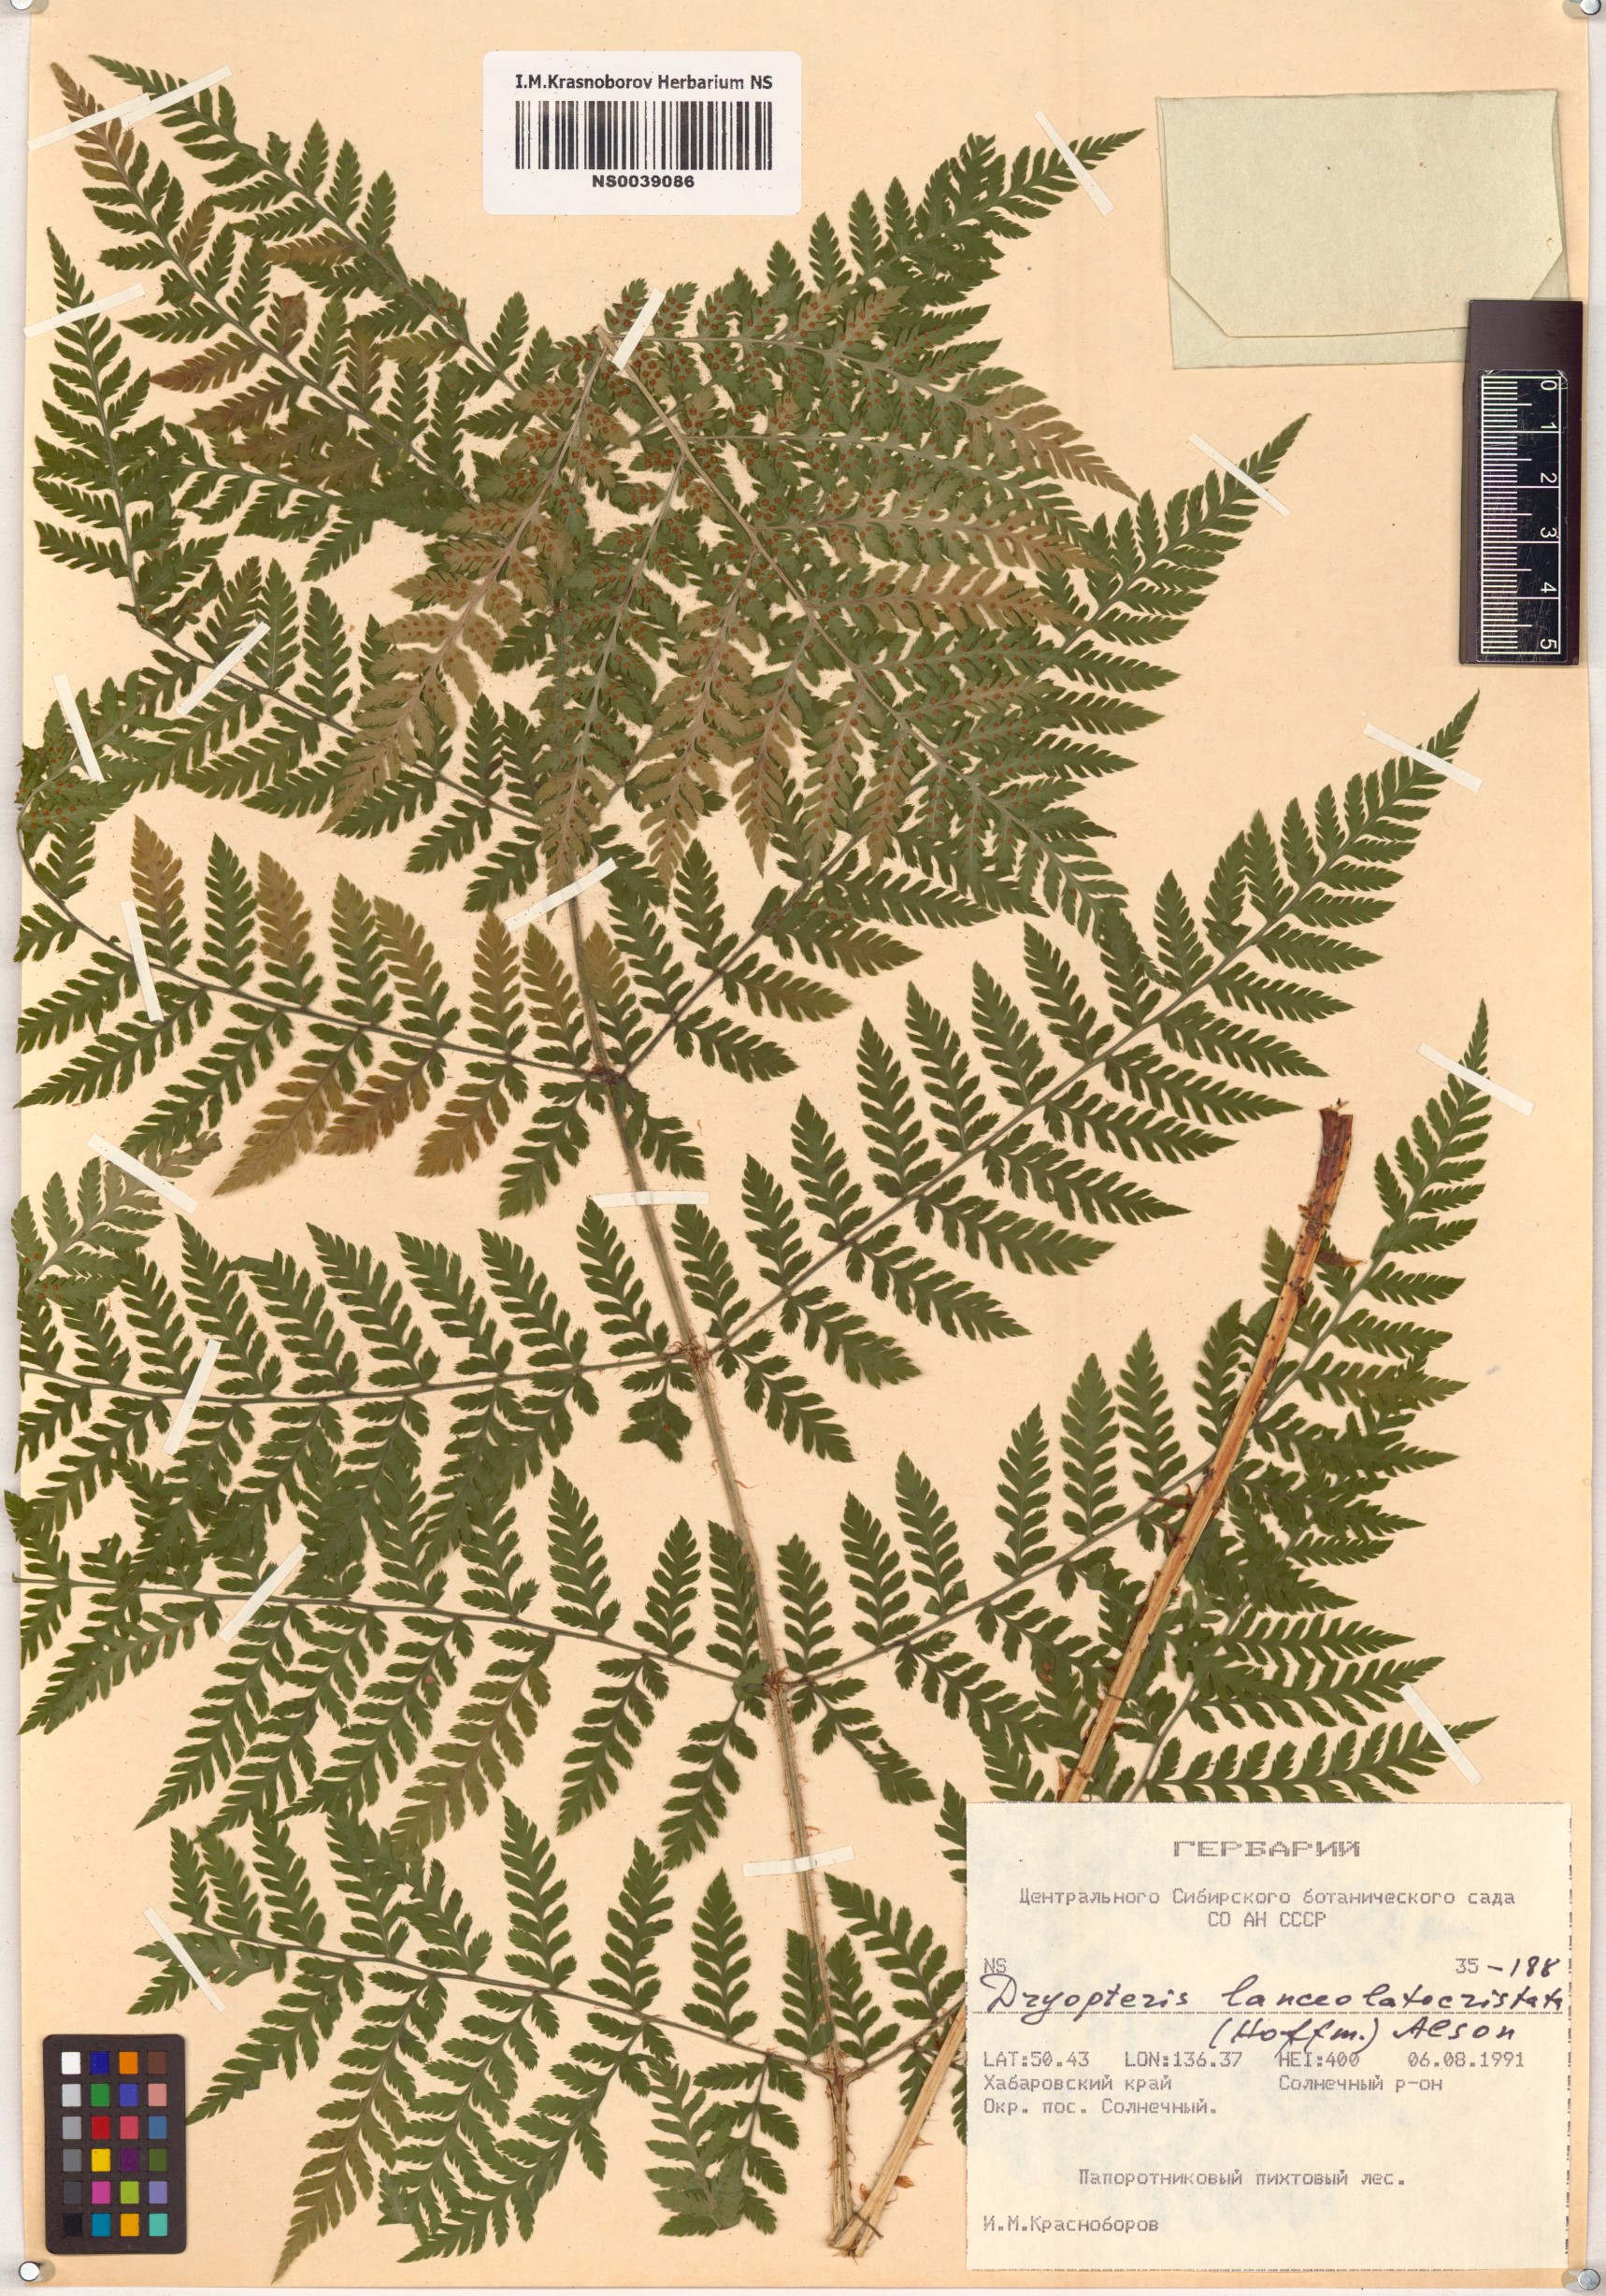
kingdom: Plantae
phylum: Tracheophyta
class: Polypodiopsida
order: Polypodiales
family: Dryopteridaceae
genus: Dryopteris
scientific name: Dryopteris carthusiana
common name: Narrow buckler-fern
